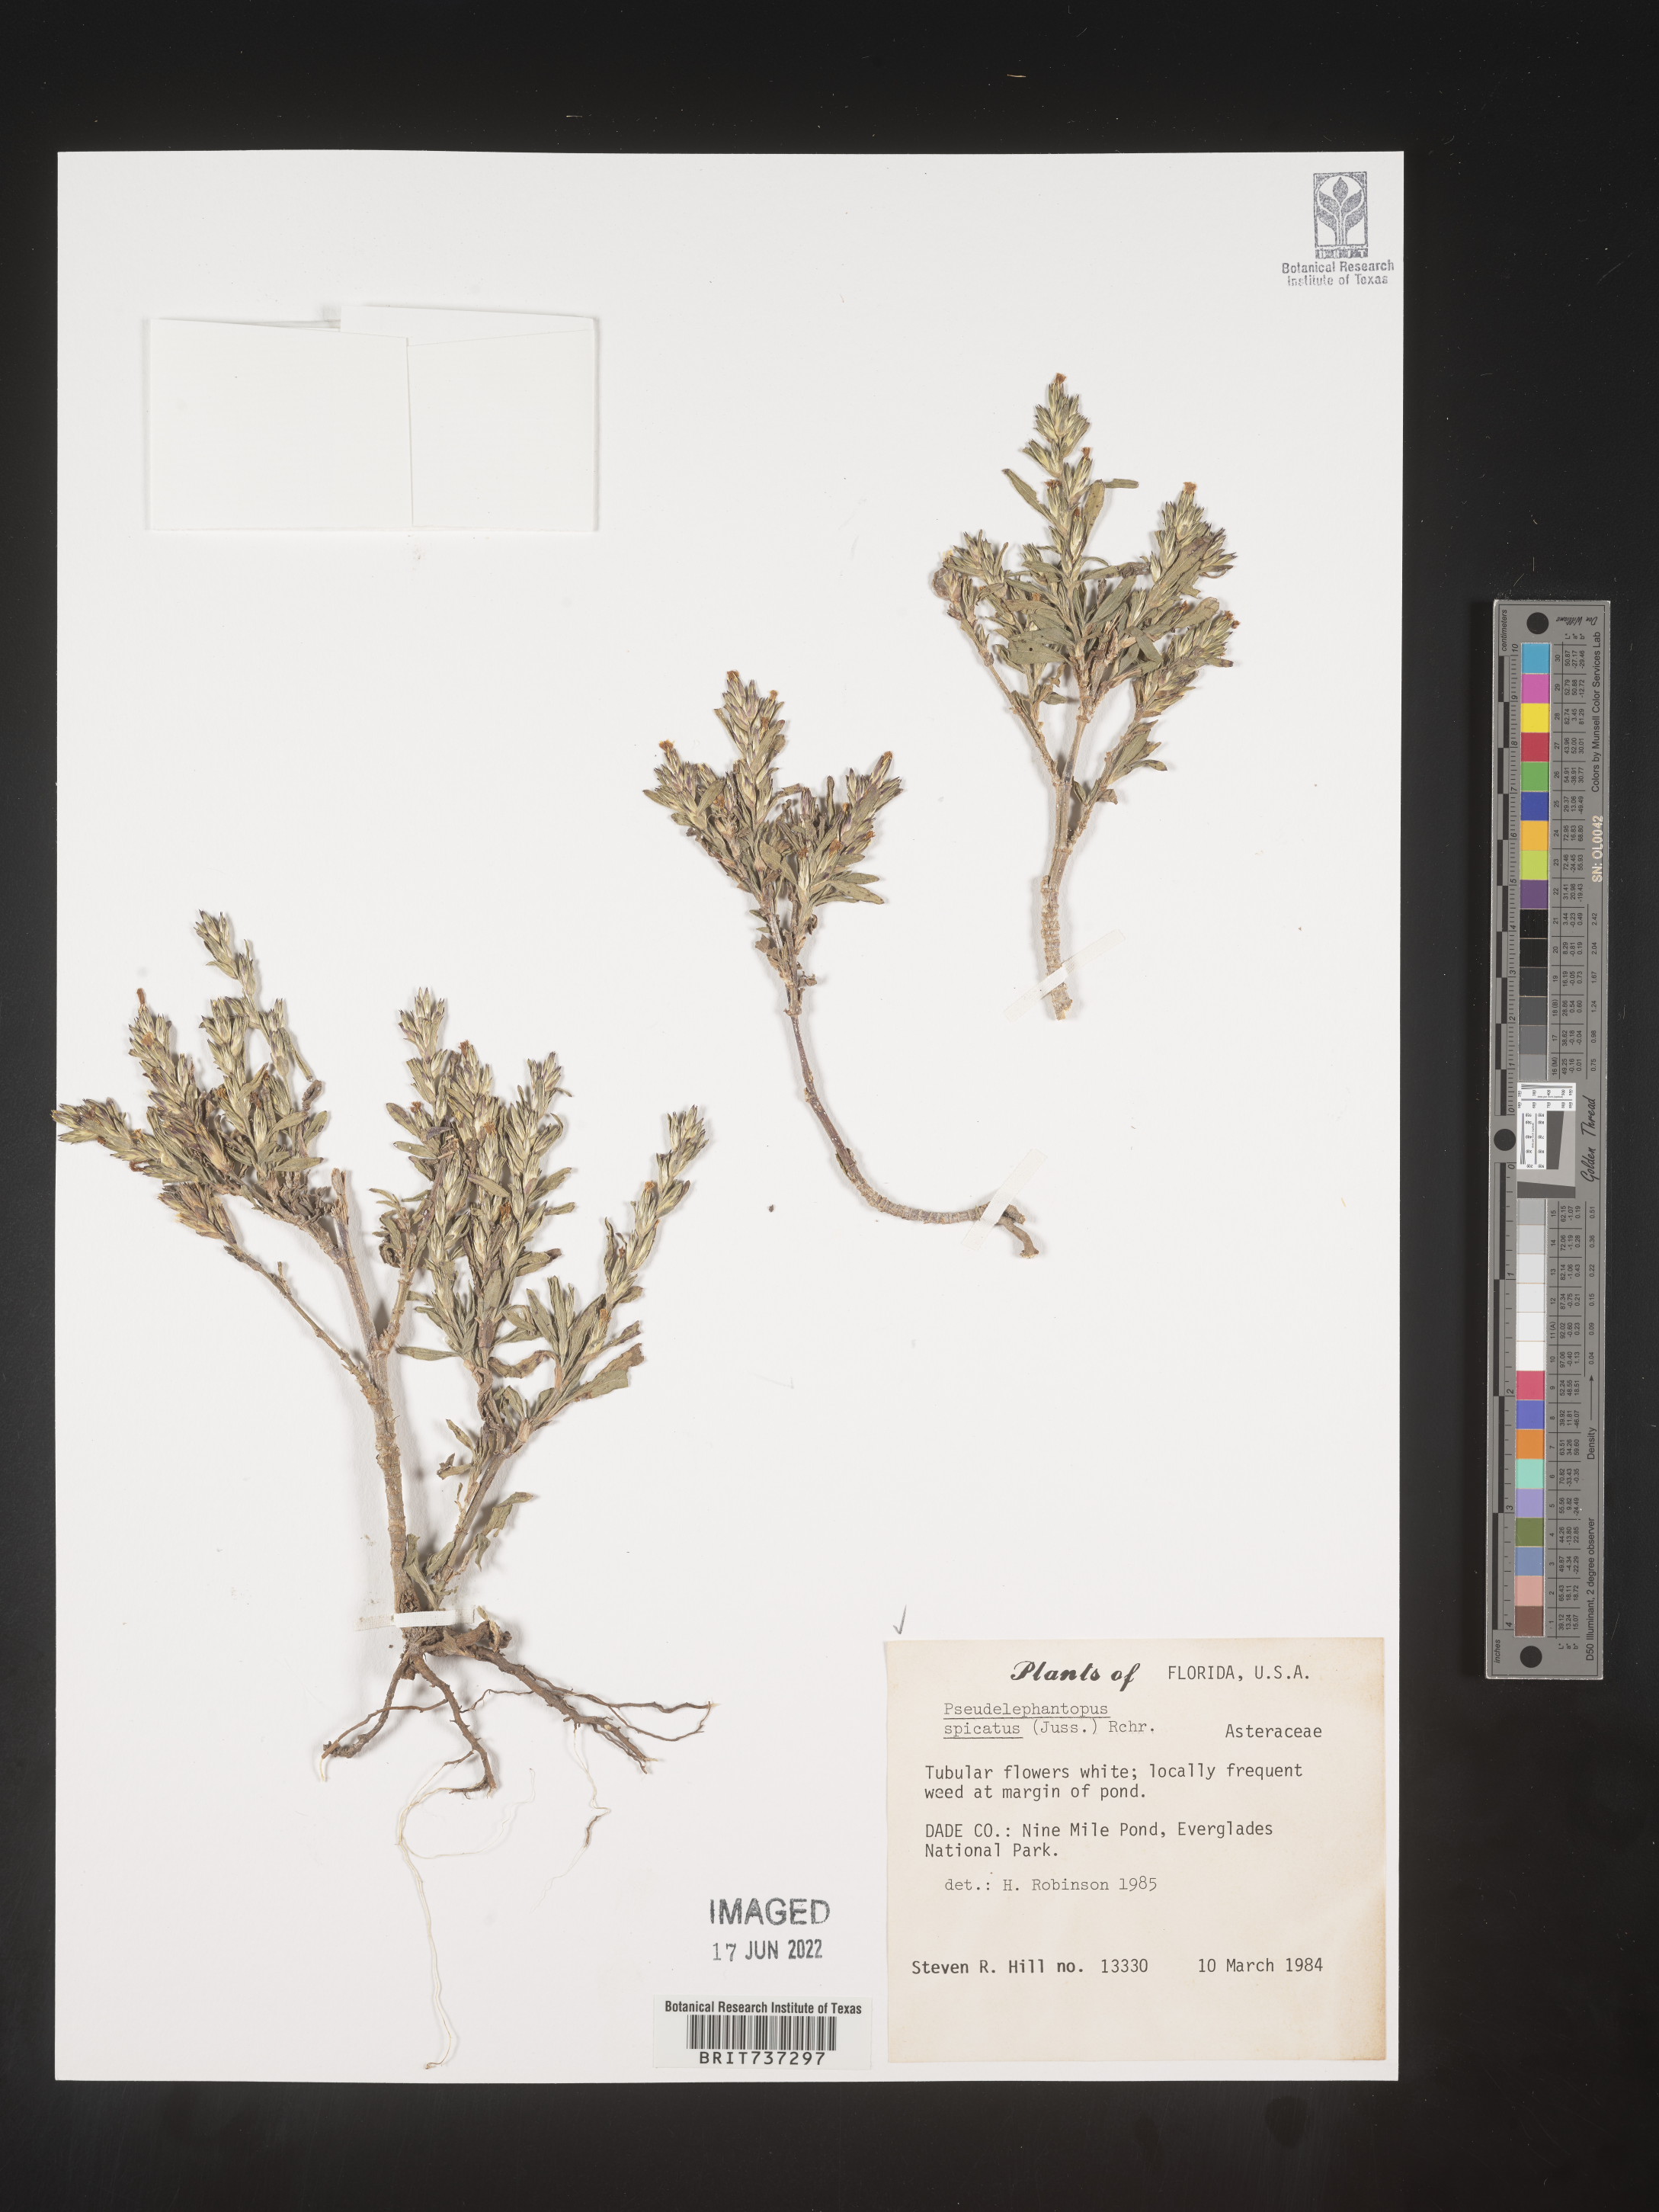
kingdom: Plantae
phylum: Tracheophyta
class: Magnoliopsida
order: Asterales
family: Asteraceae
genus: Pseudelephantopus
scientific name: Pseudelephantopus
